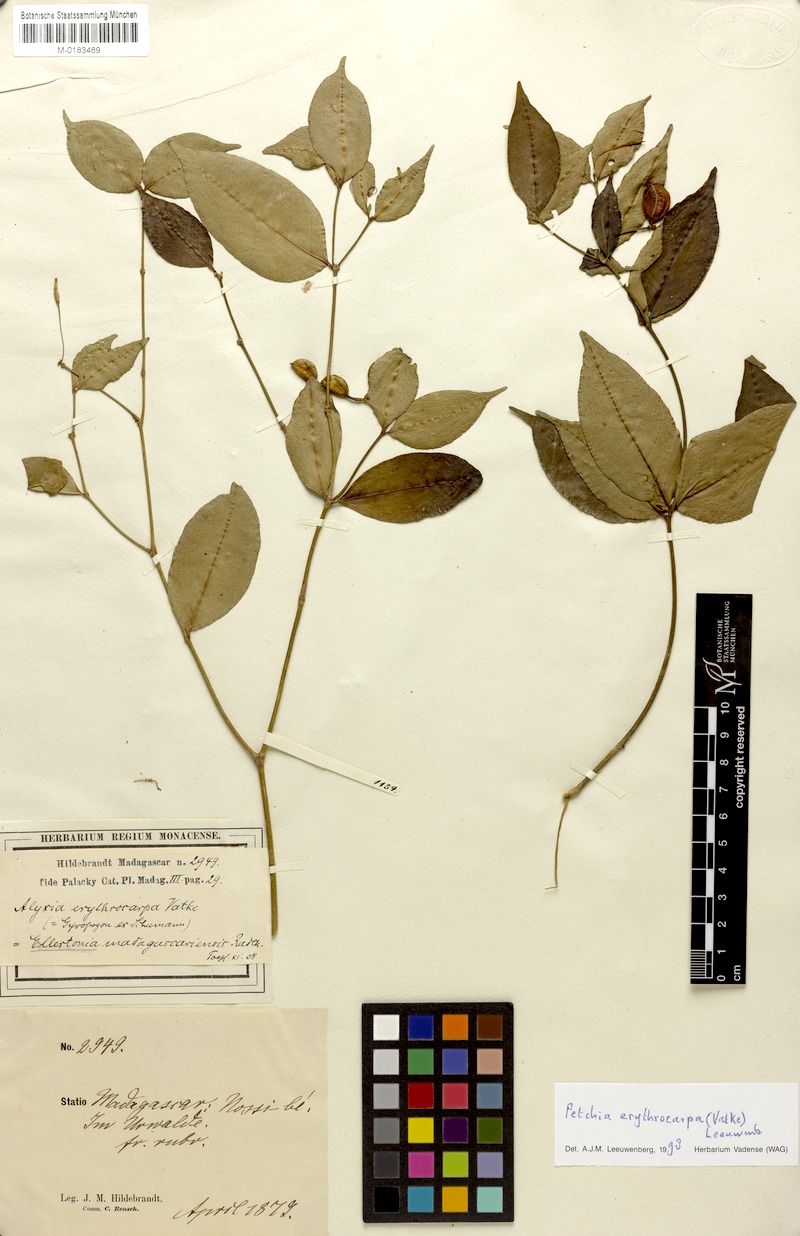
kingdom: Plantae
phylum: Tracheophyta
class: Magnoliopsida
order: Gentianales
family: Apocynaceae
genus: Petchia
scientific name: Petchia erythrocarpa
